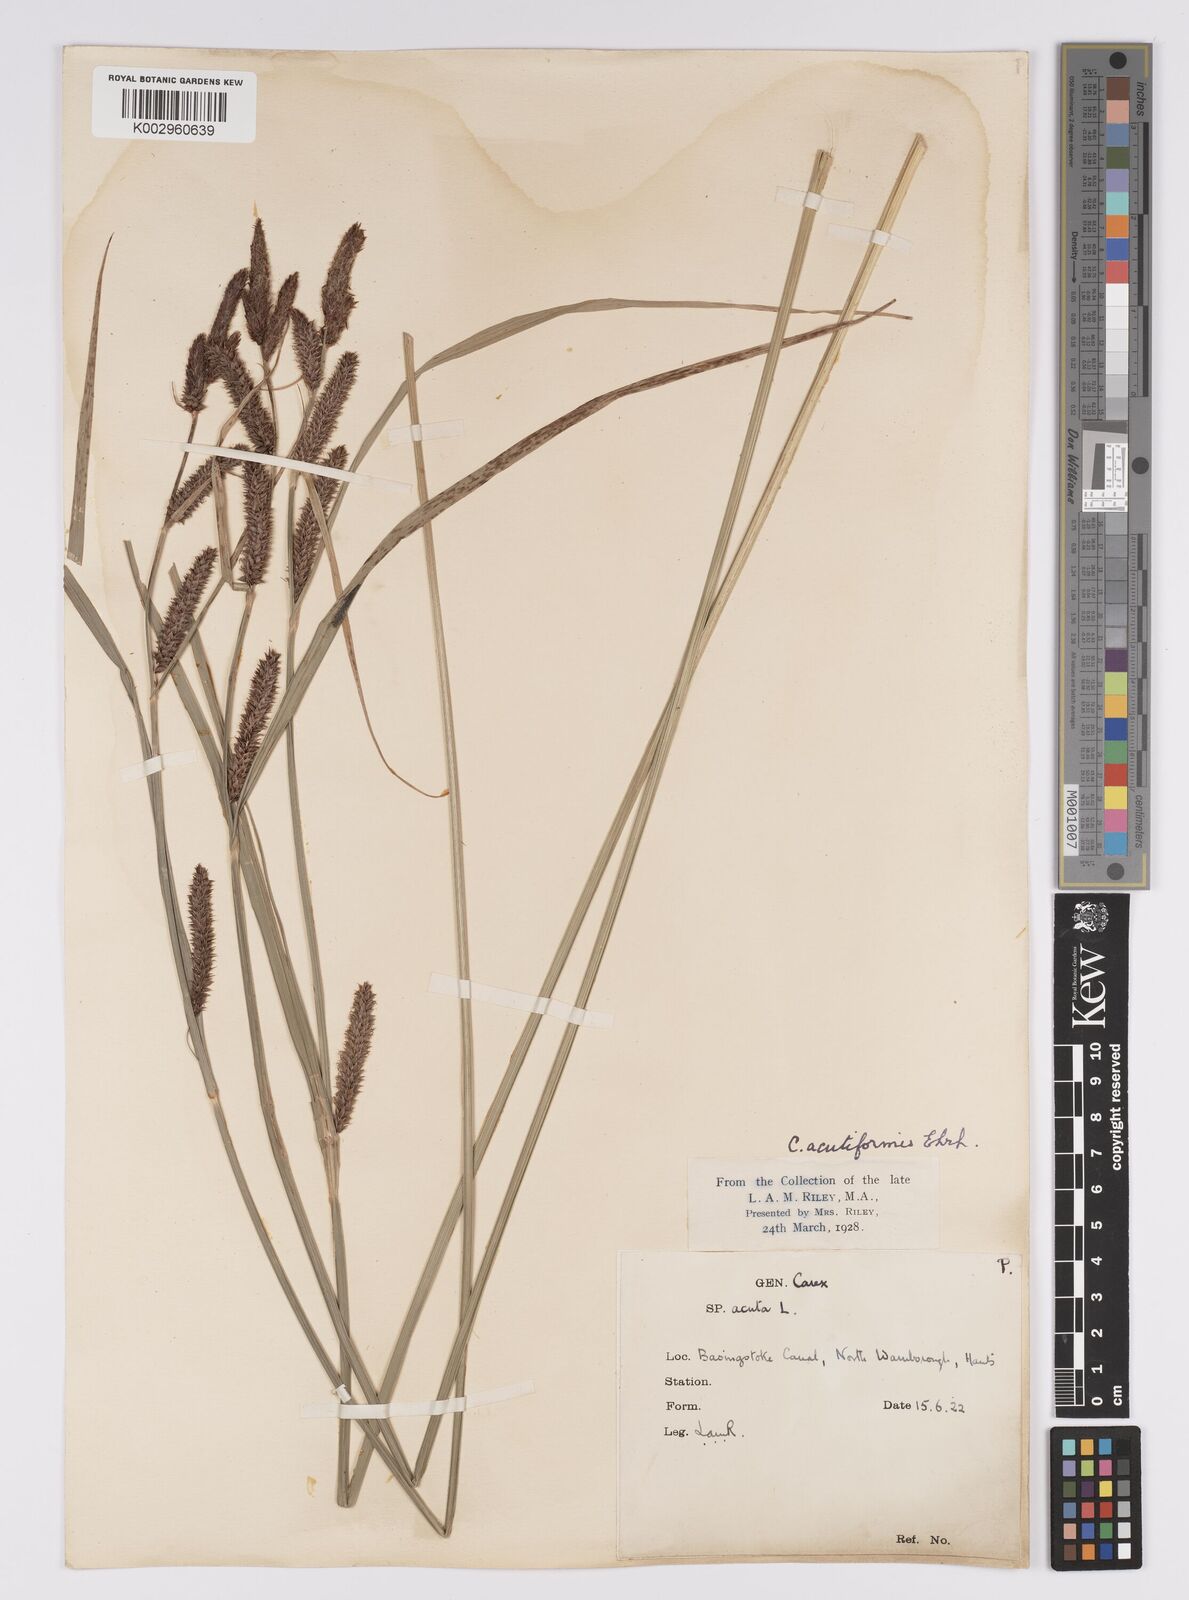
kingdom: Plantae
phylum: Tracheophyta
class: Liliopsida
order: Poales
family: Cyperaceae
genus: Carex
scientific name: Carex acutiformis
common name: Lesser pond-sedge
